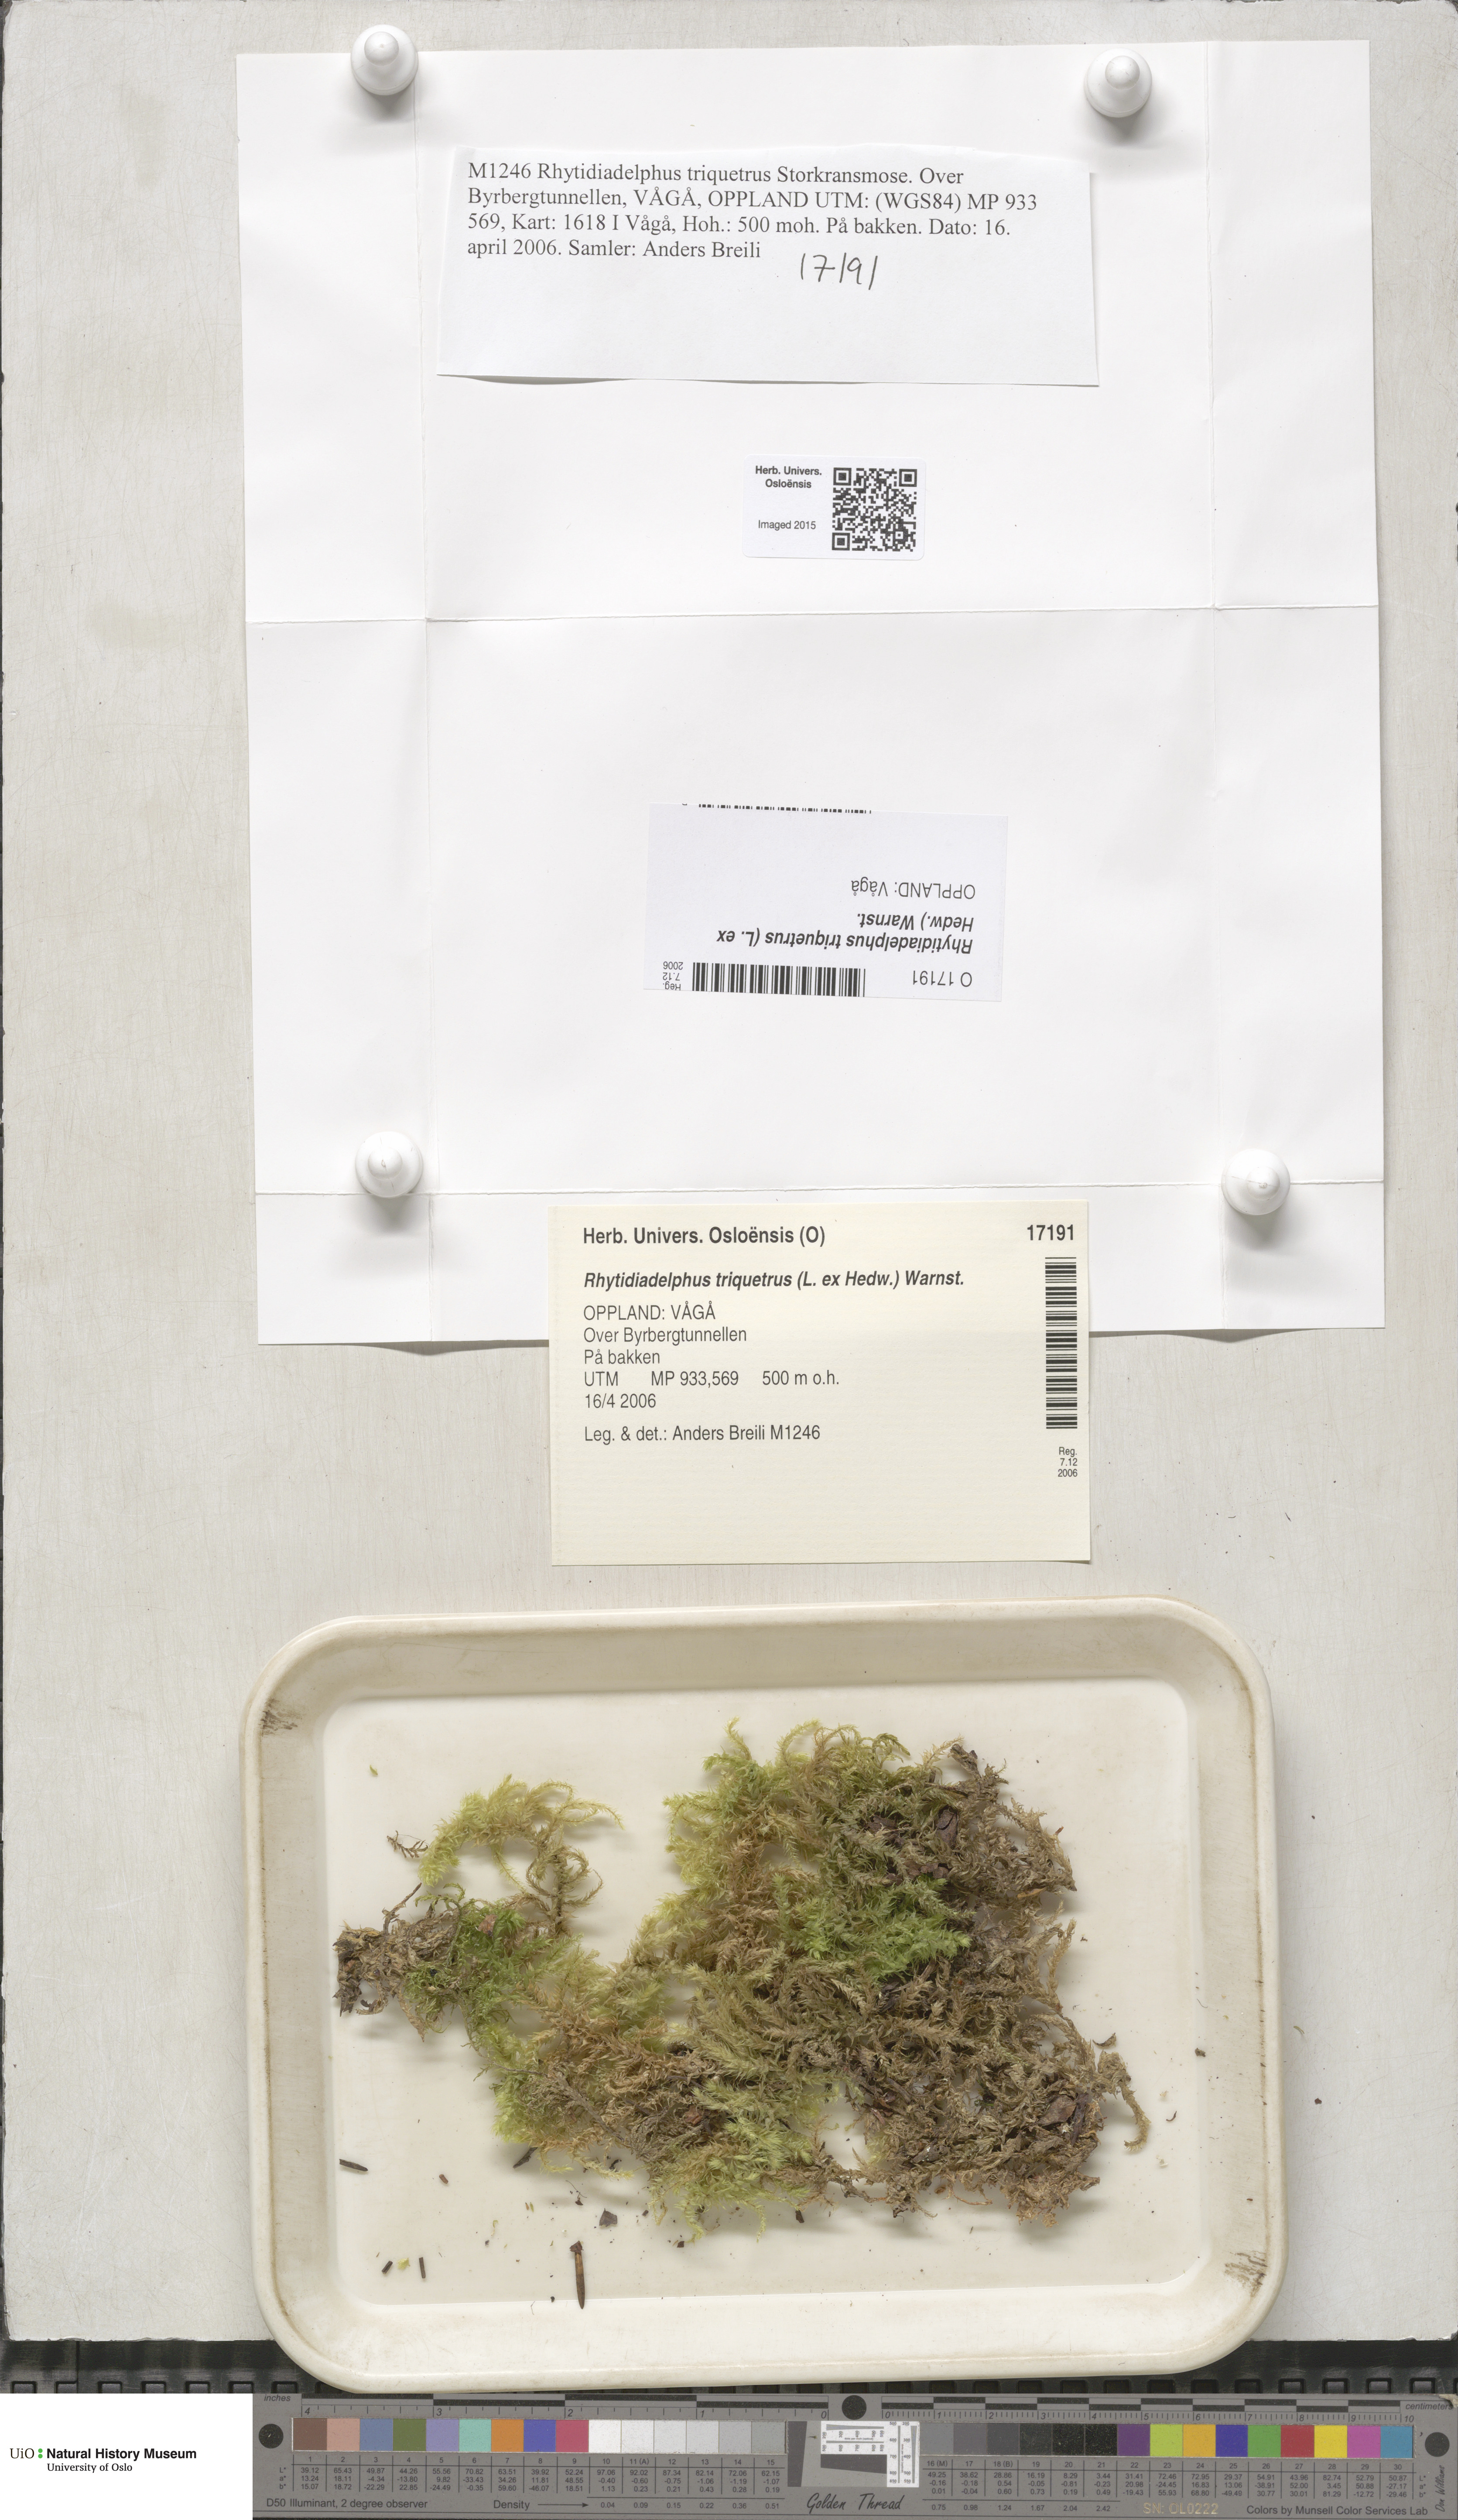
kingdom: Plantae
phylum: Bryophyta
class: Bryopsida
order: Hypnales
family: Hylocomiaceae
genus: Hylocomiadelphus
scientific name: Hylocomiadelphus triquetrus
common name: Rough goose neck moss
